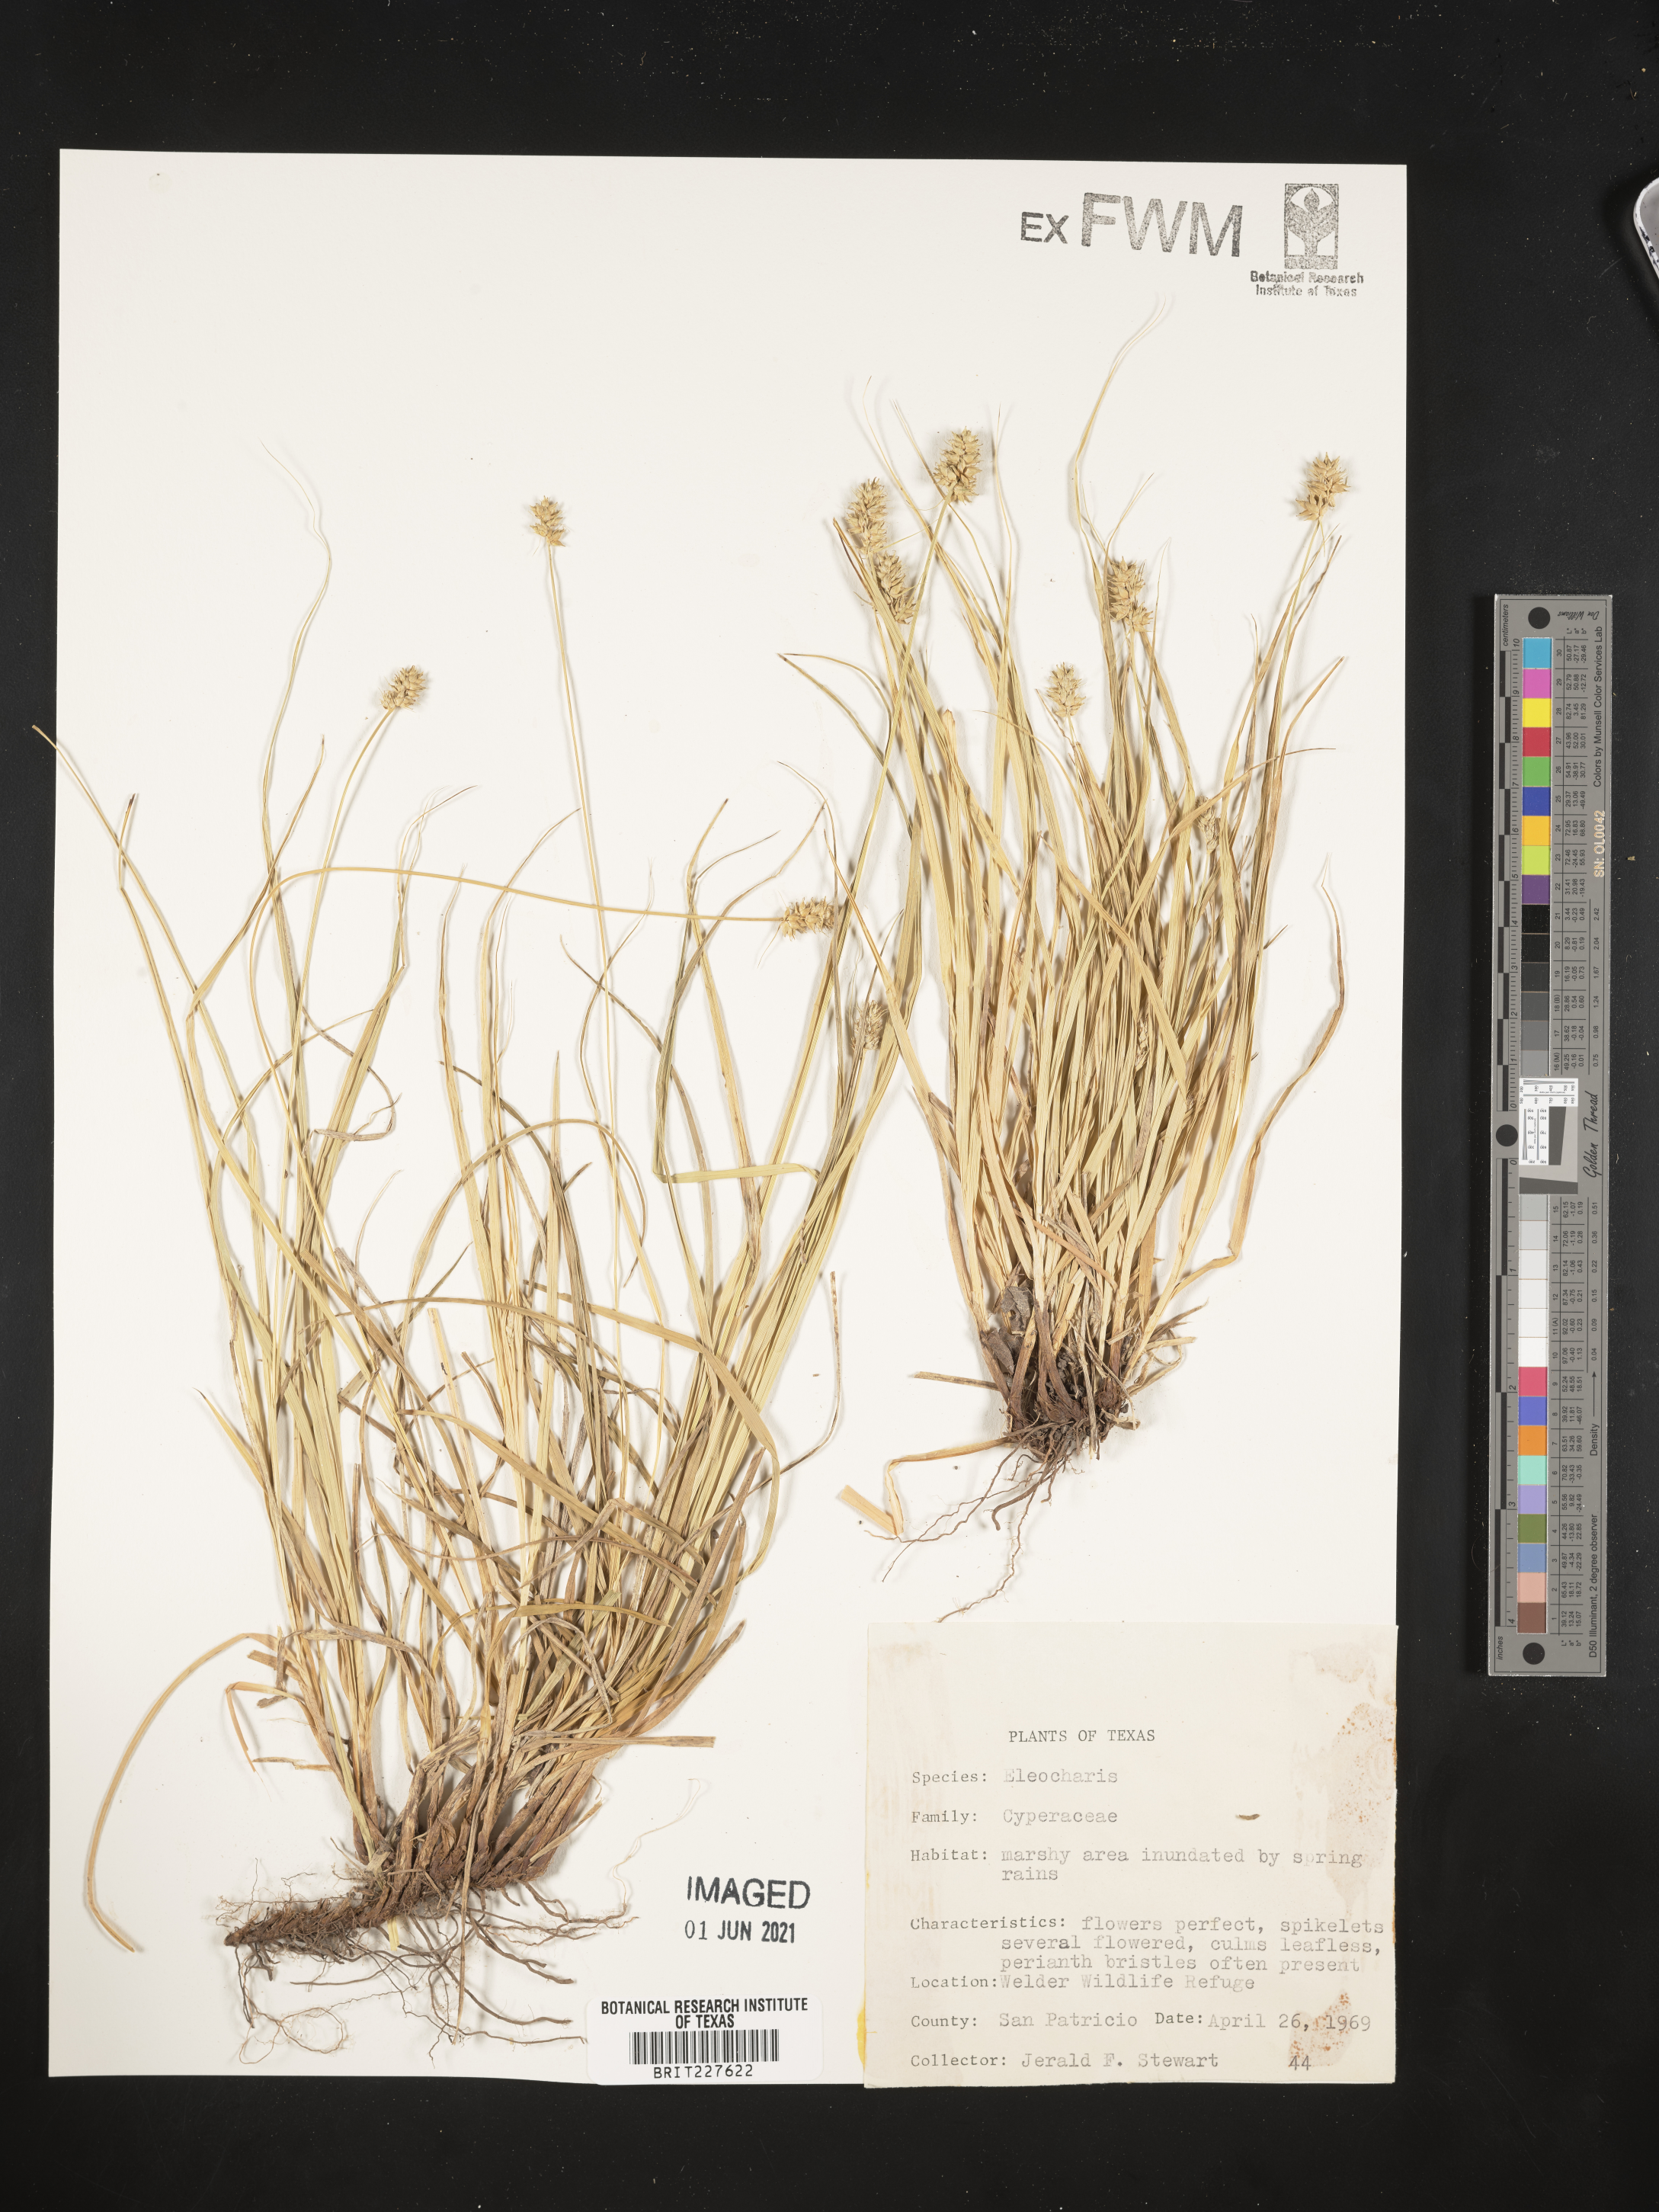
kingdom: Plantae
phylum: Tracheophyta
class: Liliopsida
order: Poales
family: Cyperaceae
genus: Eleocharis
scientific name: Eleocharis
